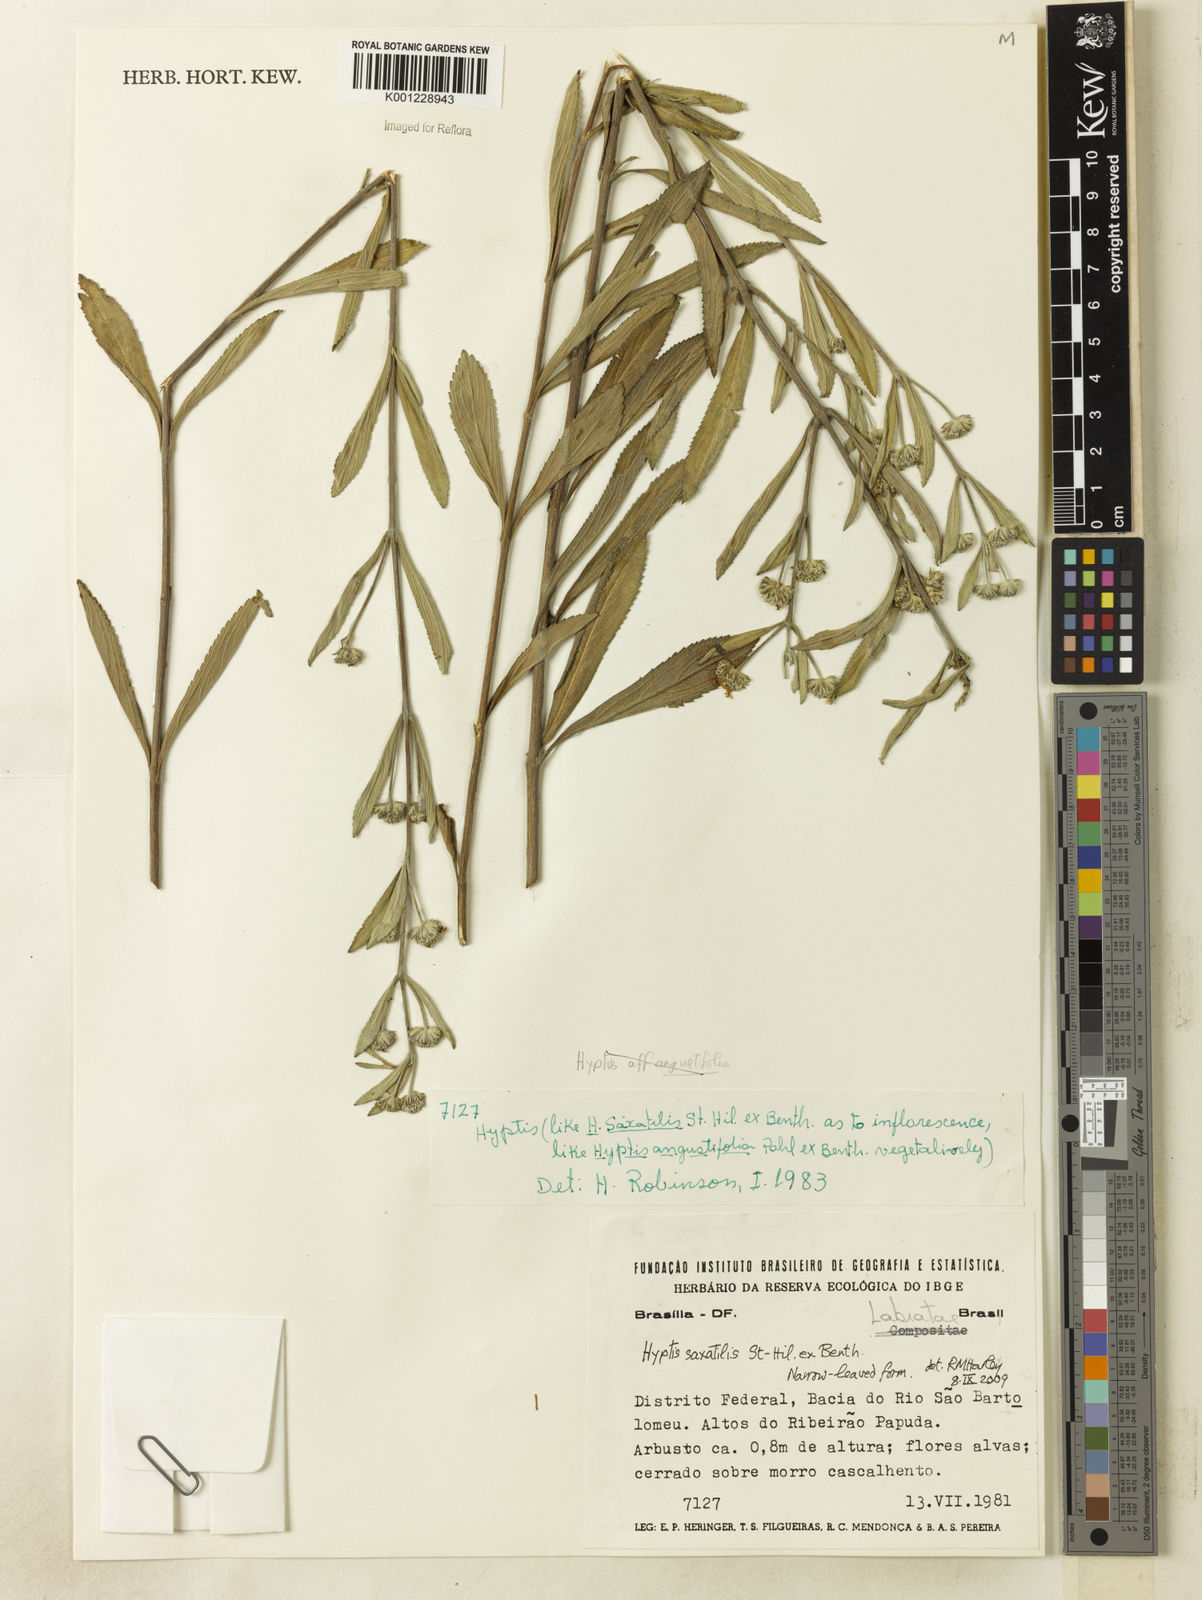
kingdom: Plantae
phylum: Tracheophyta
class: Magnoliopsida
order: Lamiales
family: Lamiaceae
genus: Hyptis
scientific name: Hyptis saxatilis
